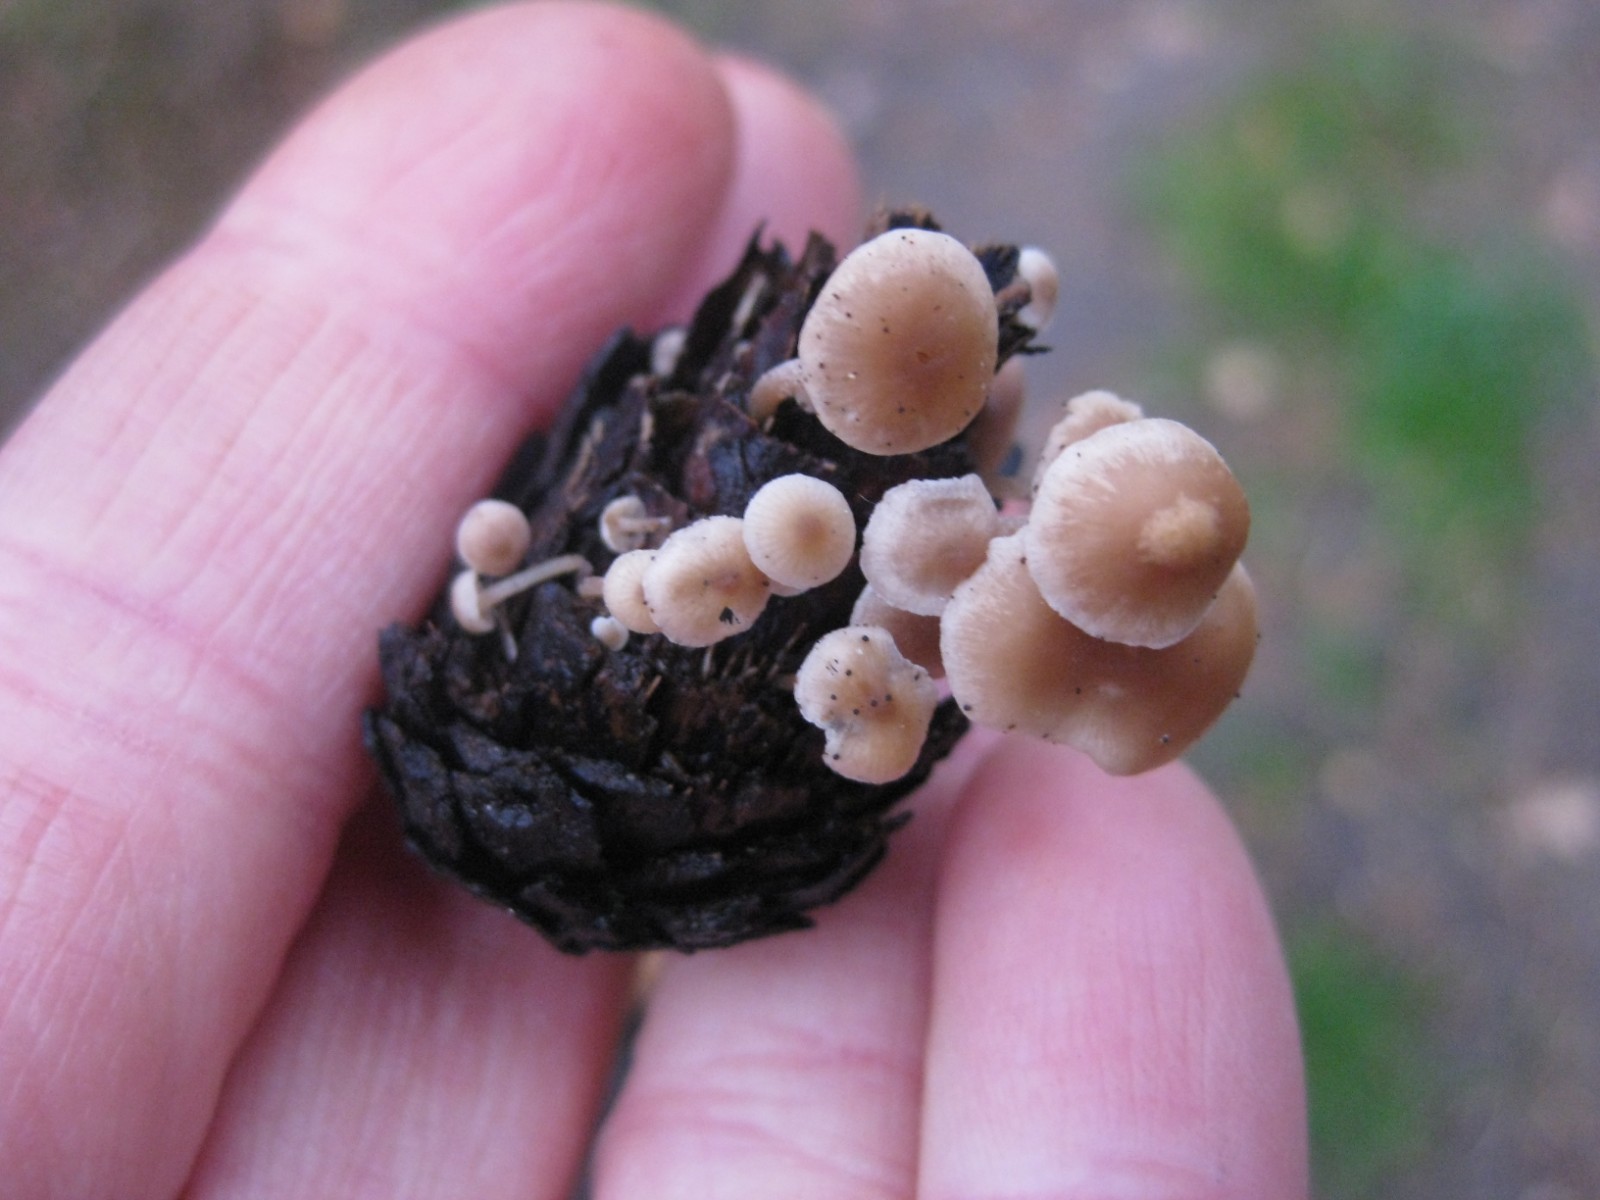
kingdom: Fungi
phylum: Basidiomycota
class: Agaricomycetes
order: Agaricales
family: Marasmiaceae
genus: Baeospora
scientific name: Baeospora myosura
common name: koglebruskhat
